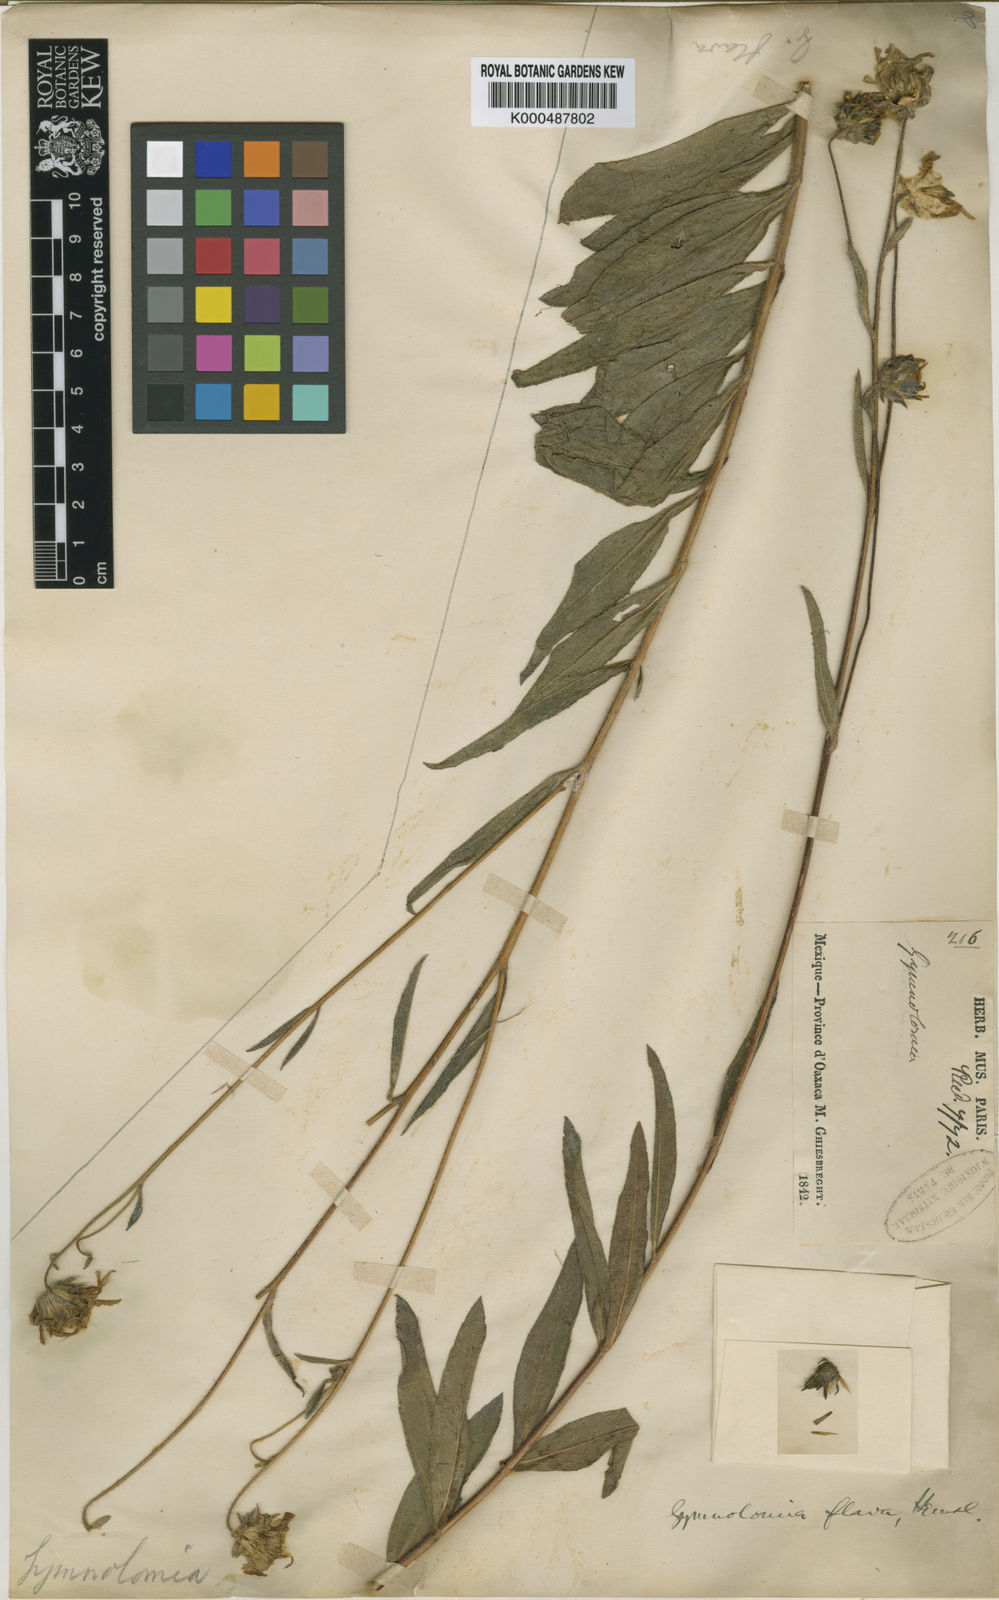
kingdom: Plantae
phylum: Tracheophyta
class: Magnoliopsida
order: Asterales
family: Asteraceae
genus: Aldama
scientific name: Aldama flava
